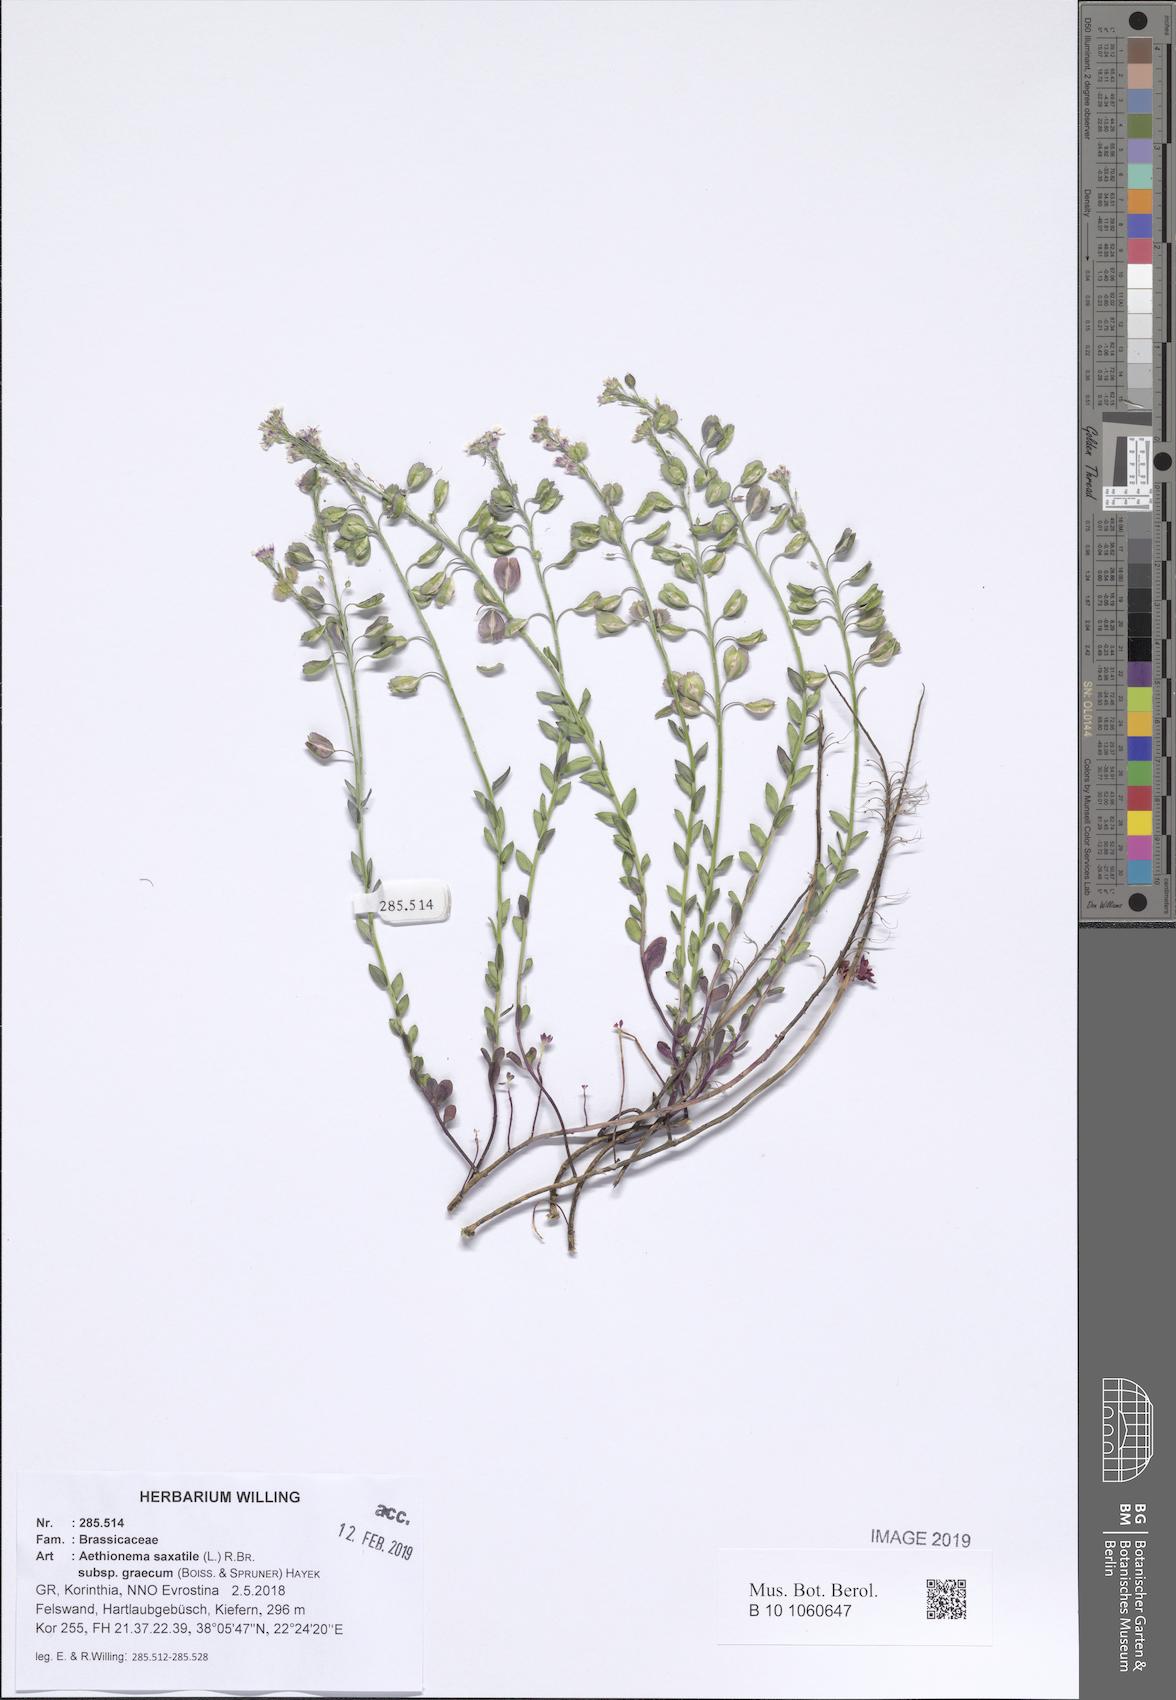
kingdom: Plantae
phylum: Tracheophyta
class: Magnoliopsida
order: Brassicales
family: Brassicaceae
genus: Aethionema
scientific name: Aethionema saxatile
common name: Burnt candytuft
